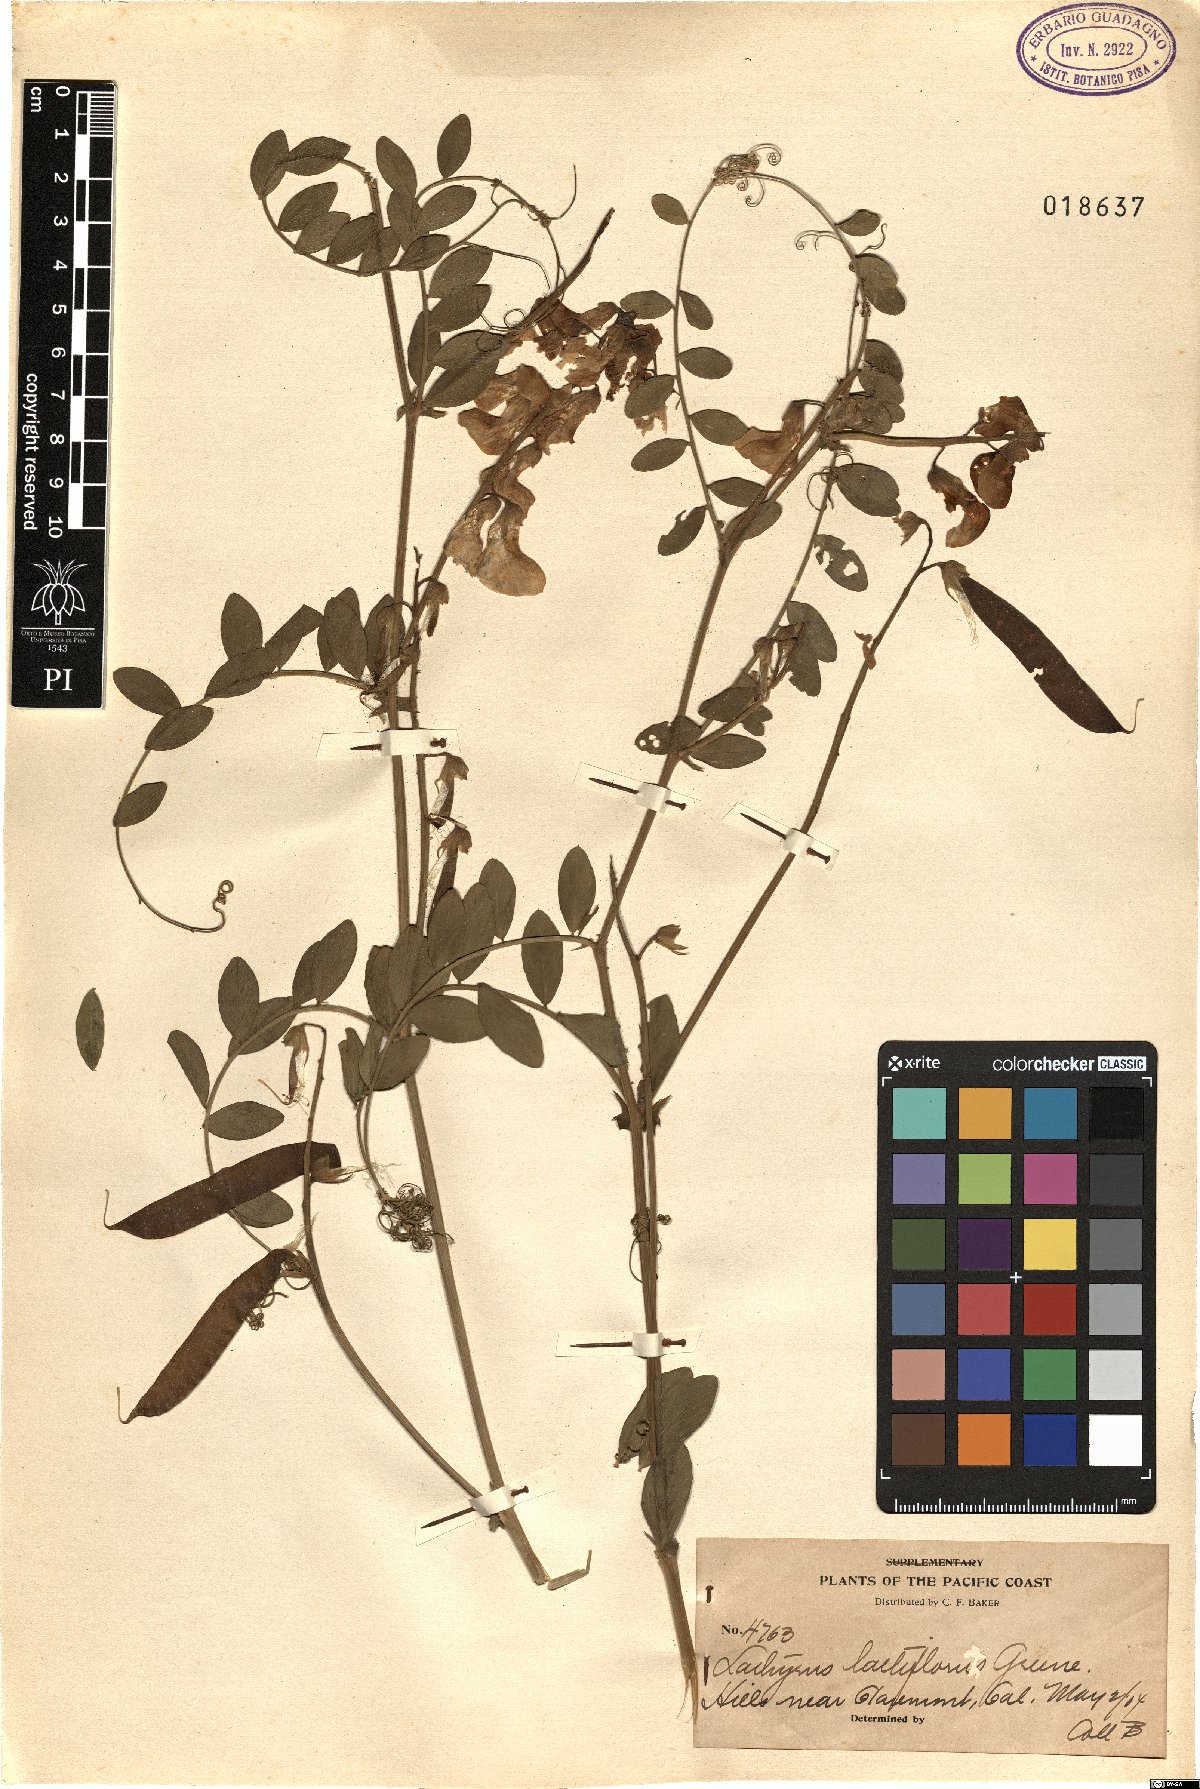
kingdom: Plantae
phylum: Tracheophyta
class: Magnoliopsida
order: Fabales
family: Fabaceae
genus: Lathyrus
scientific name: Lathyrus vestitus
